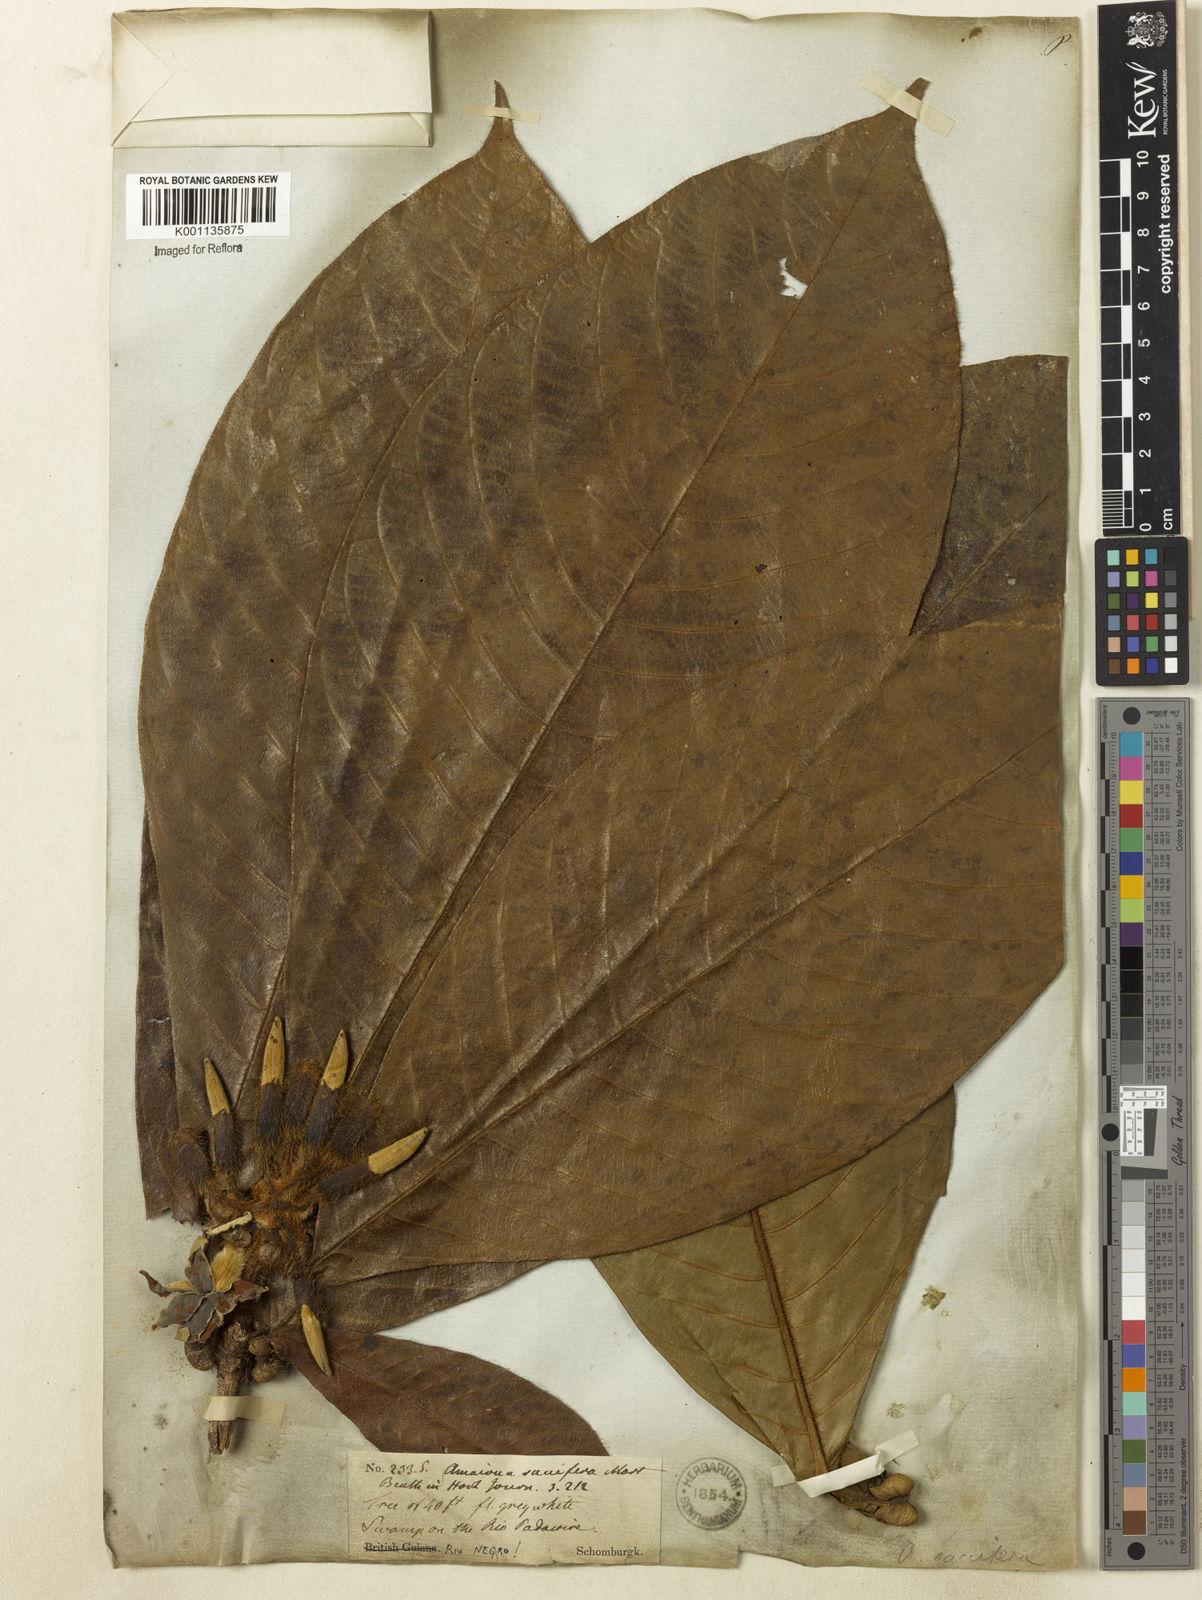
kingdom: Plantae
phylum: Tracheophyta
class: Magnoliopsida
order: Gentianales
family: Rubiaceae
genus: Duroia
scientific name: Duroia saccifera
